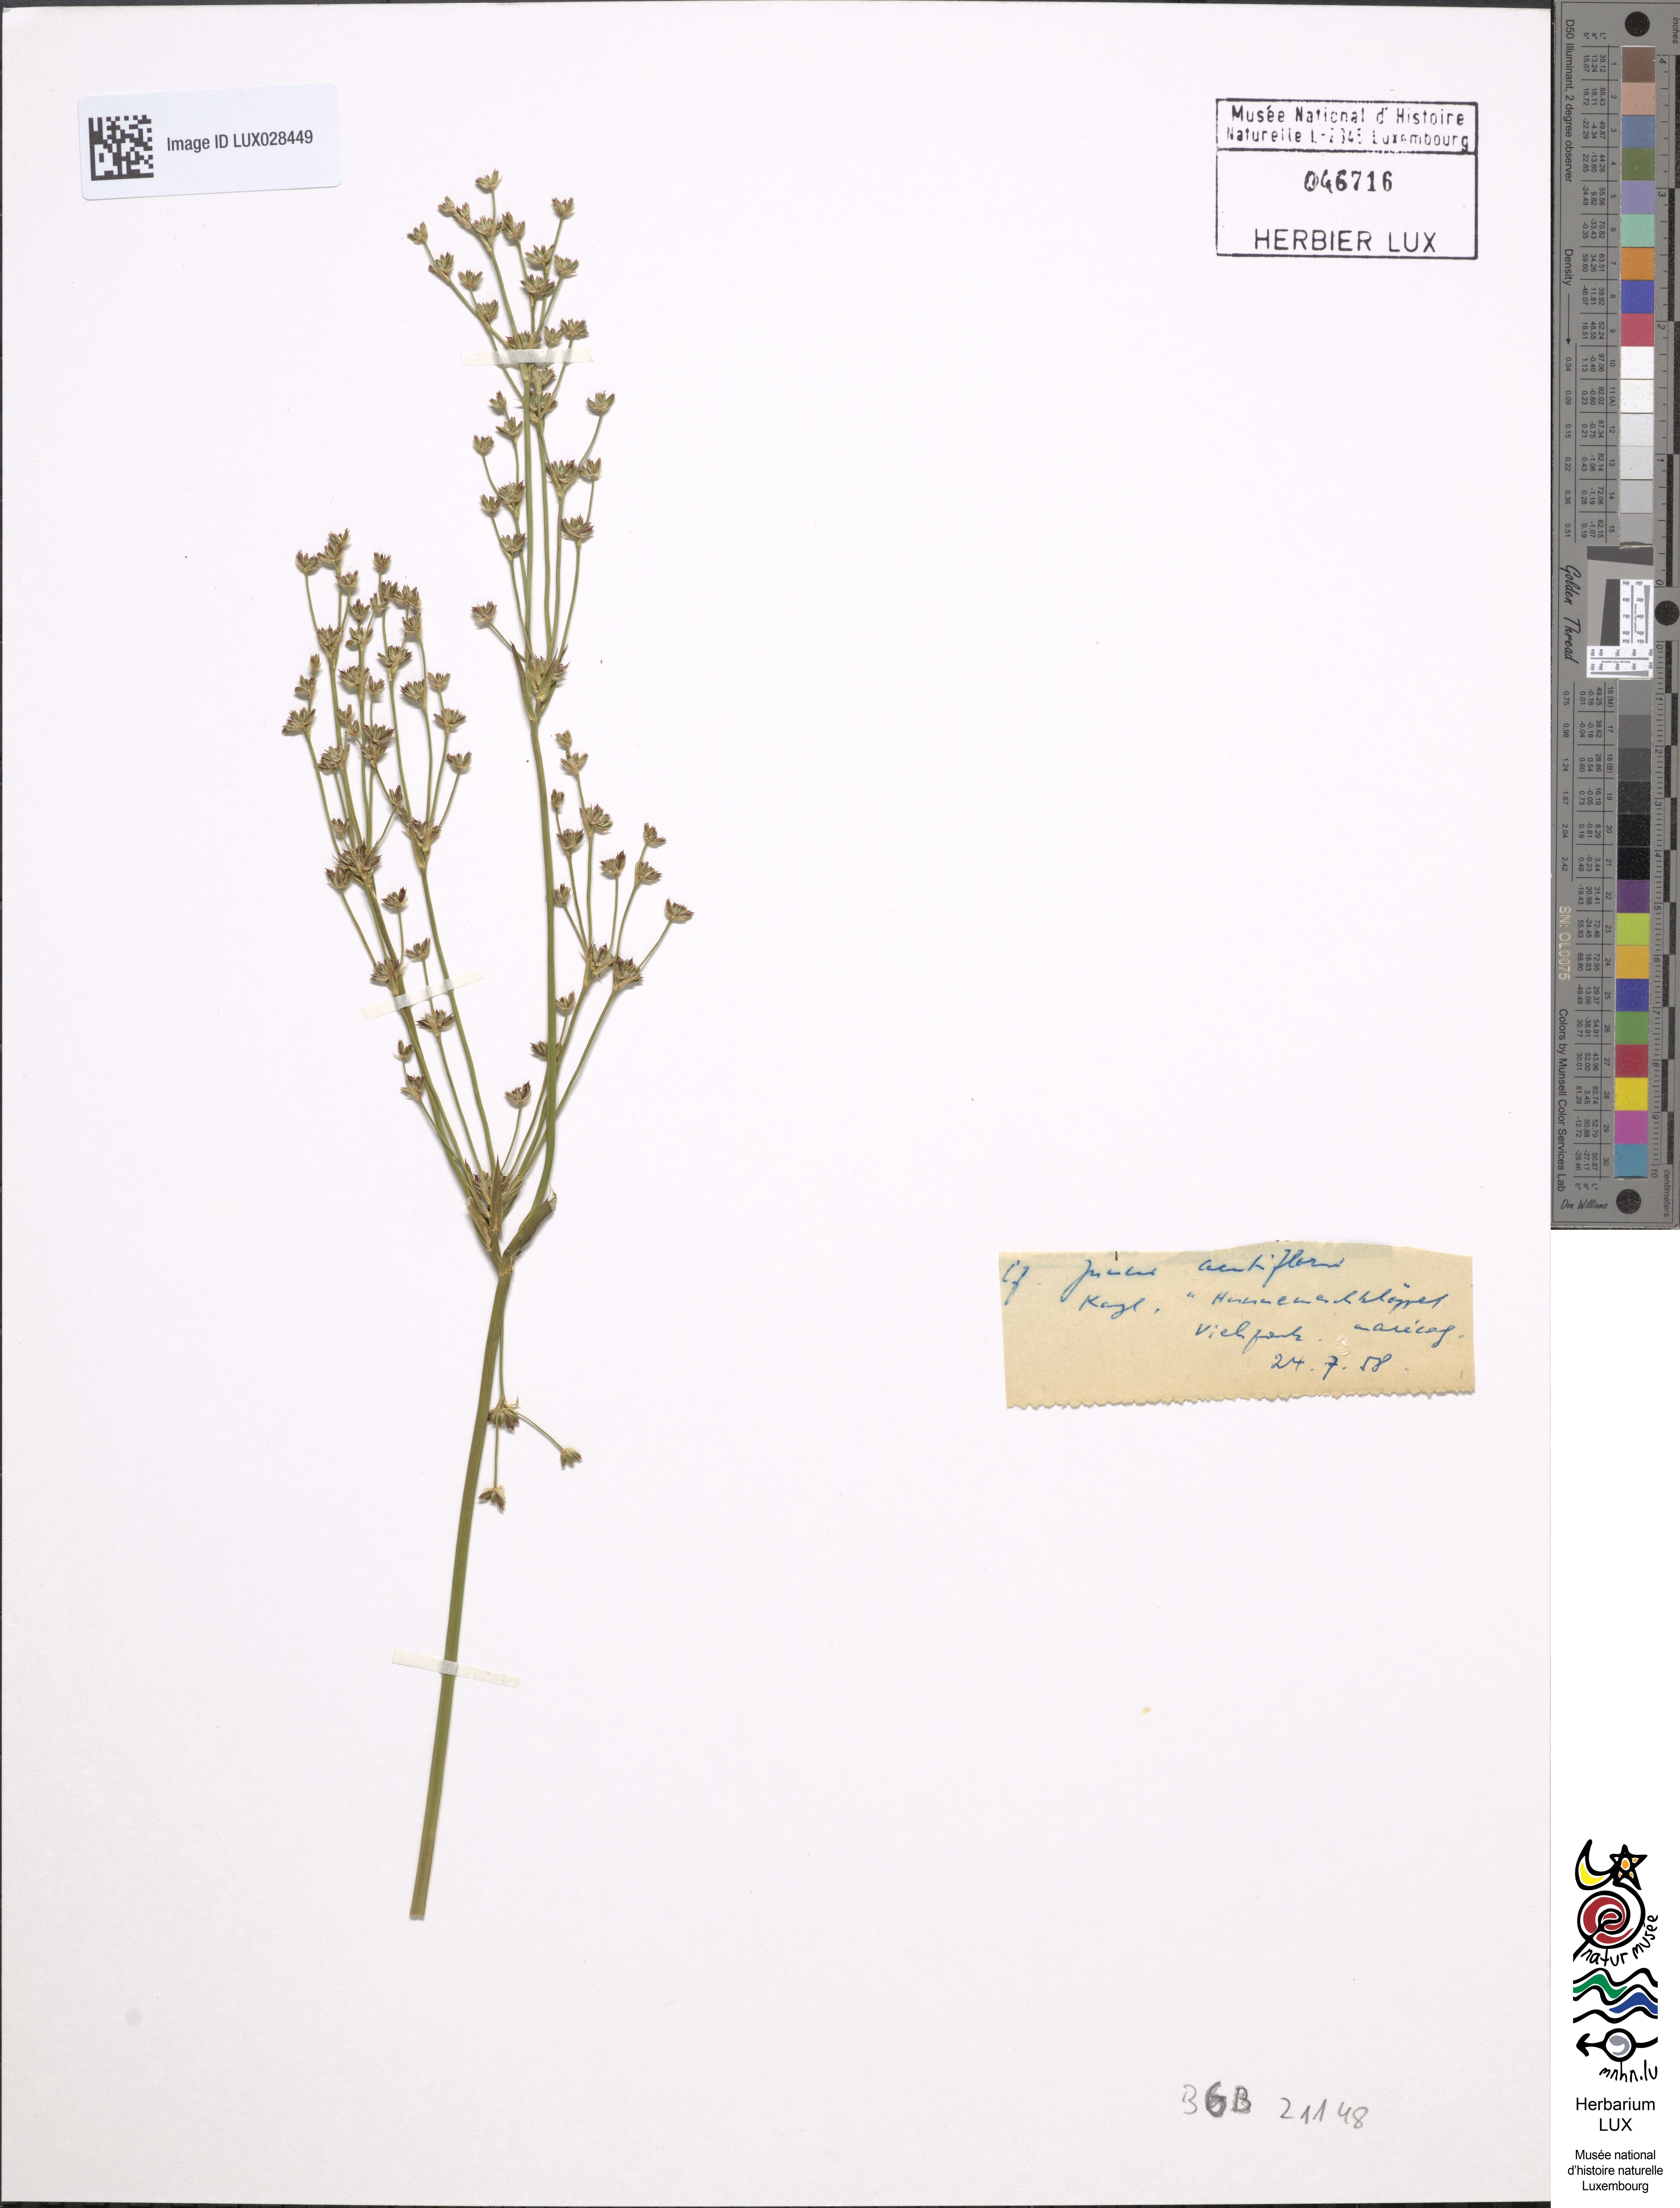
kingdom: Plantae
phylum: Tracheophyta
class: Liliopsida
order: Poales
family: Juncaceae
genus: Juncus
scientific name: Juncus acutiflorus
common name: Sharp-flowered rush
